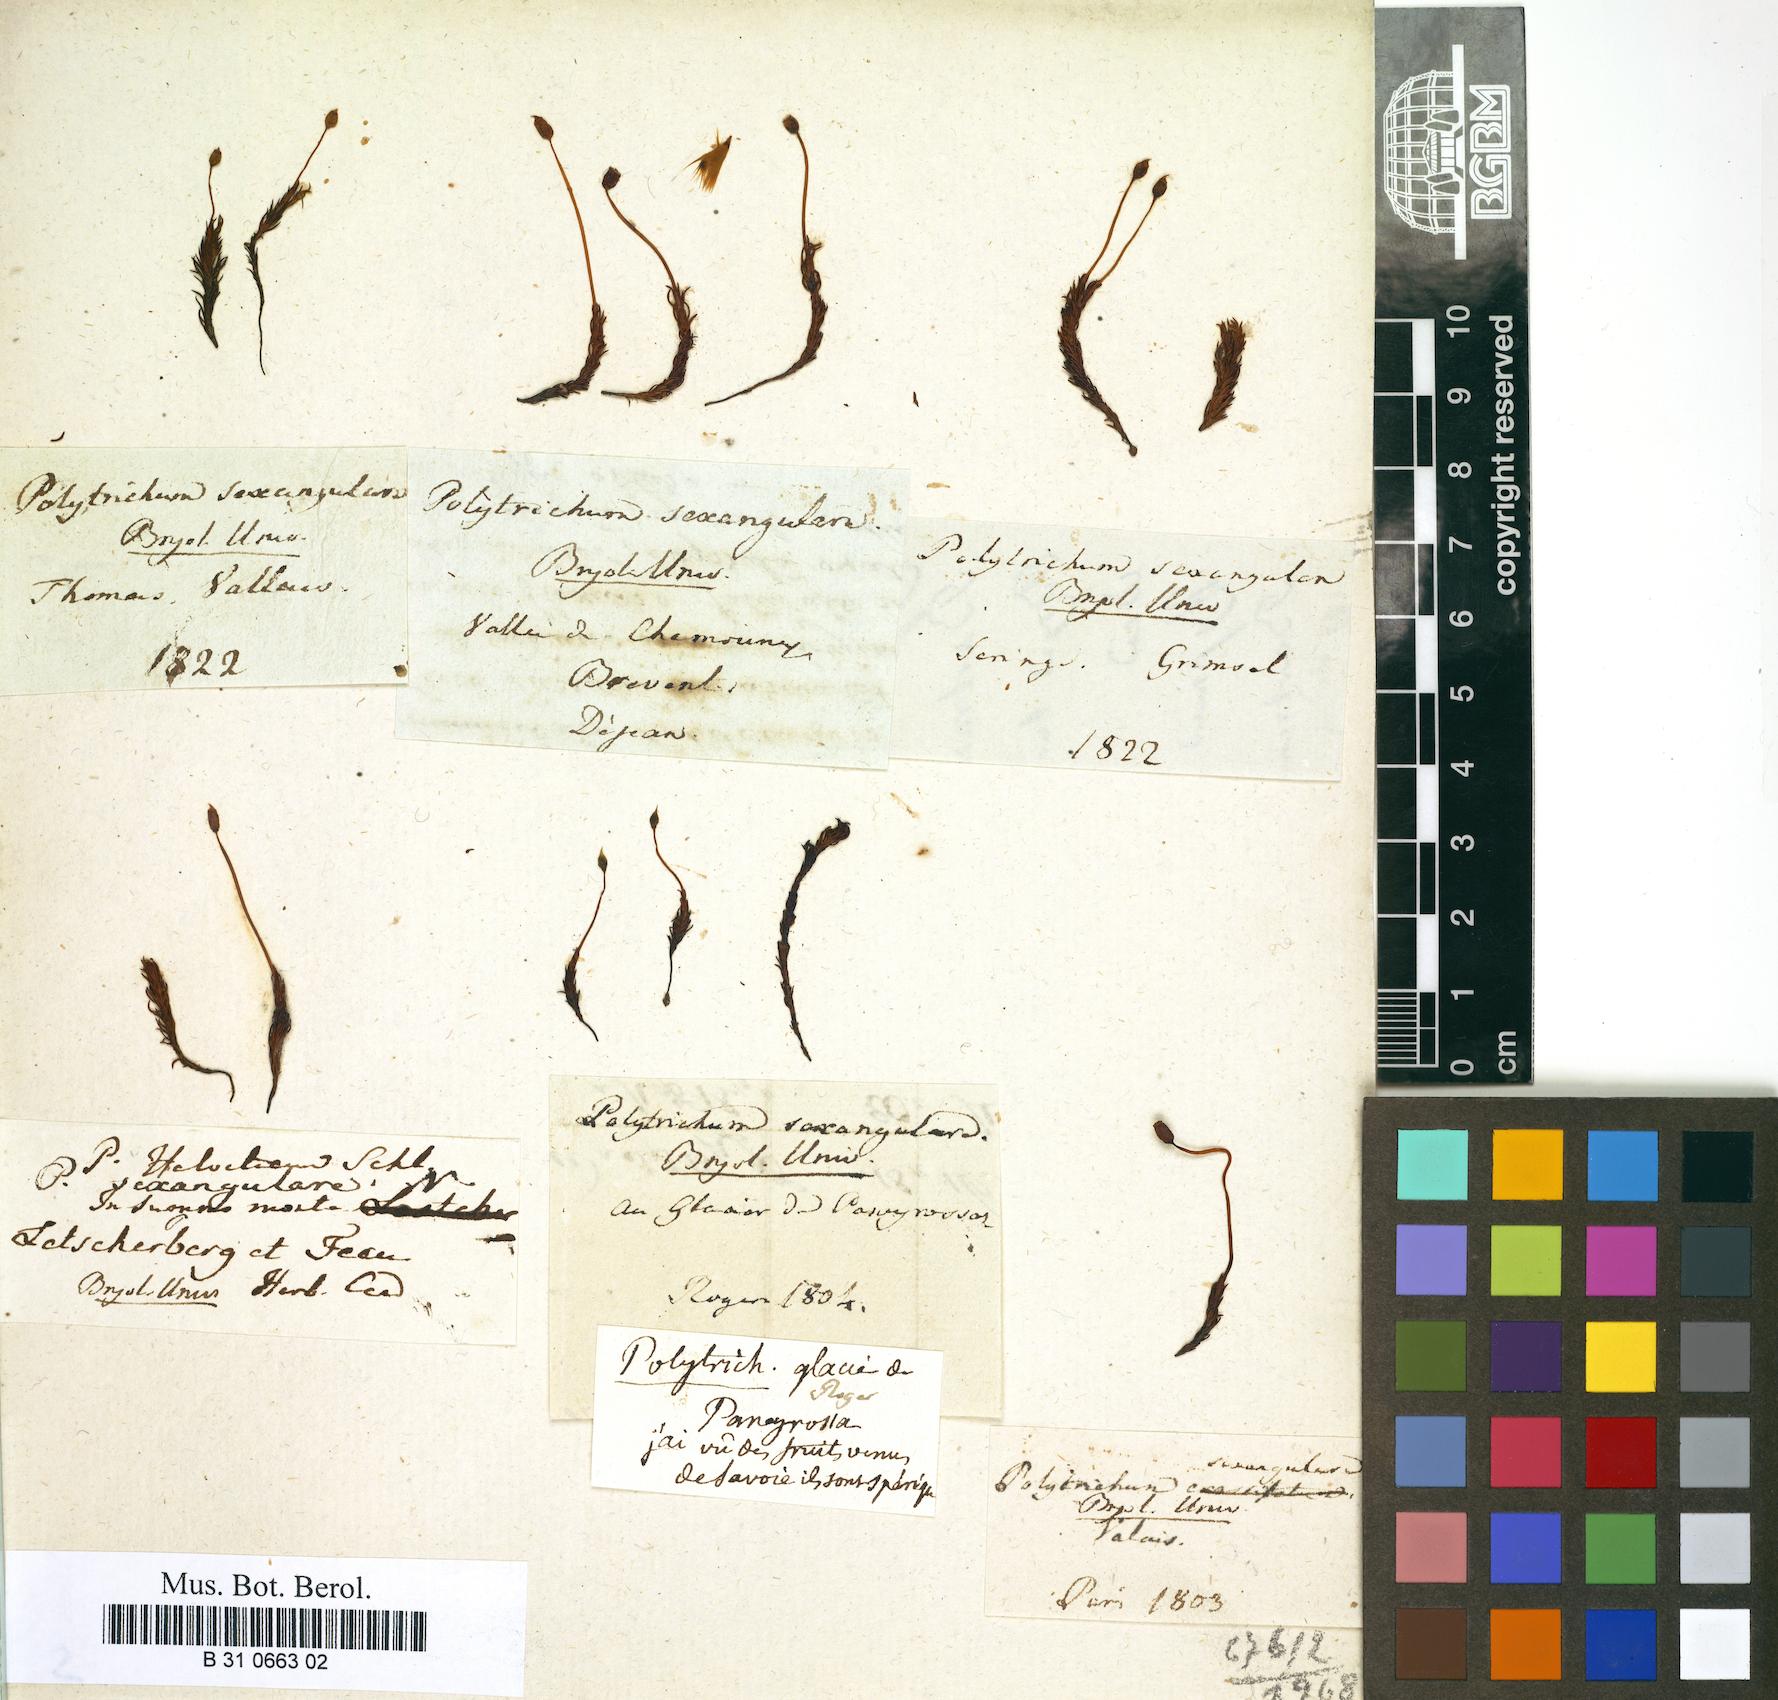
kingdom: Plantae
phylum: Bryophyta
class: Polytrichopsida
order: Polytrichales
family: Polytrichaceae
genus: Polytrichastrum
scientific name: Polytrichastrum sexangulare
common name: Northern haircap
